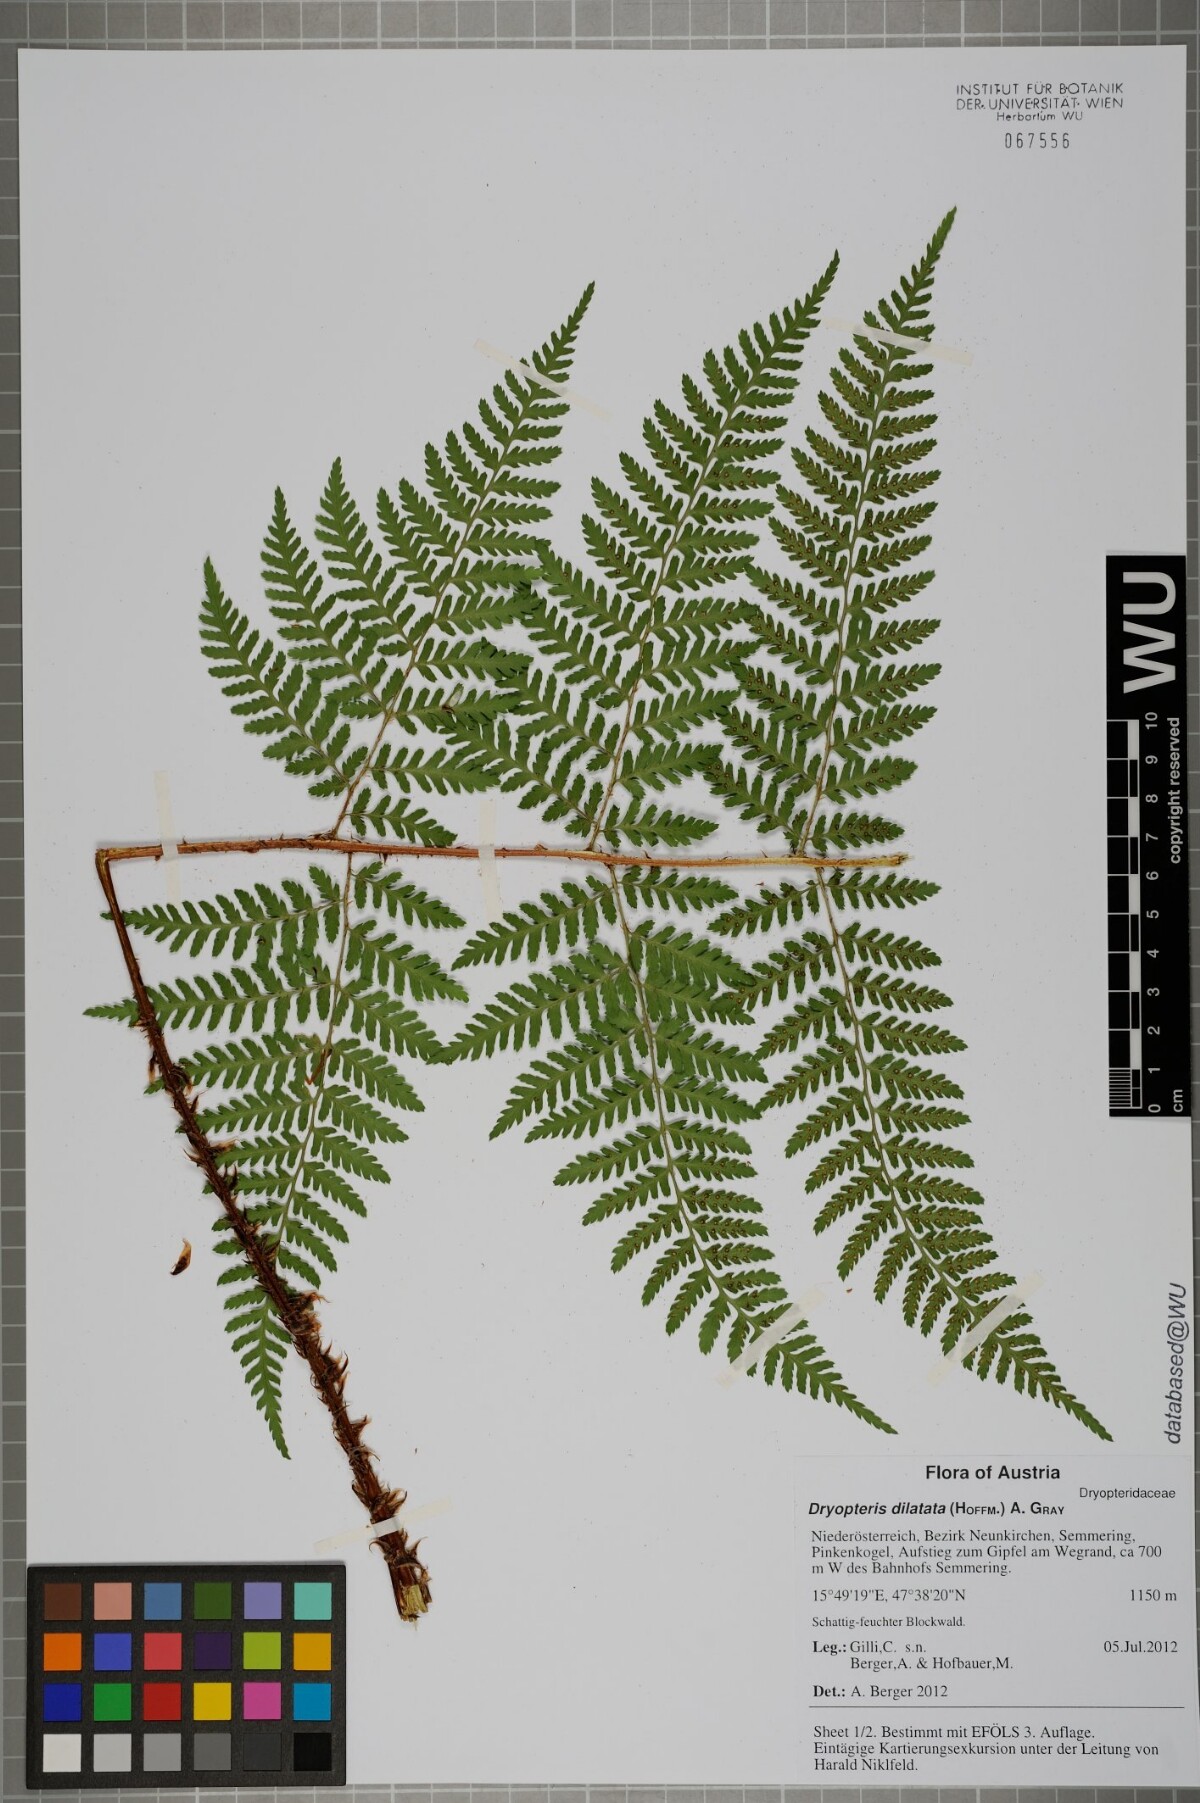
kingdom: Plantae
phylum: Tracheophyta
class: Polypodiopsida
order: Polypodiales
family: Dryopteridaceae
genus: Dryopteris
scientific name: Dryopteris dilatata
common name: Broad buckler-fern
